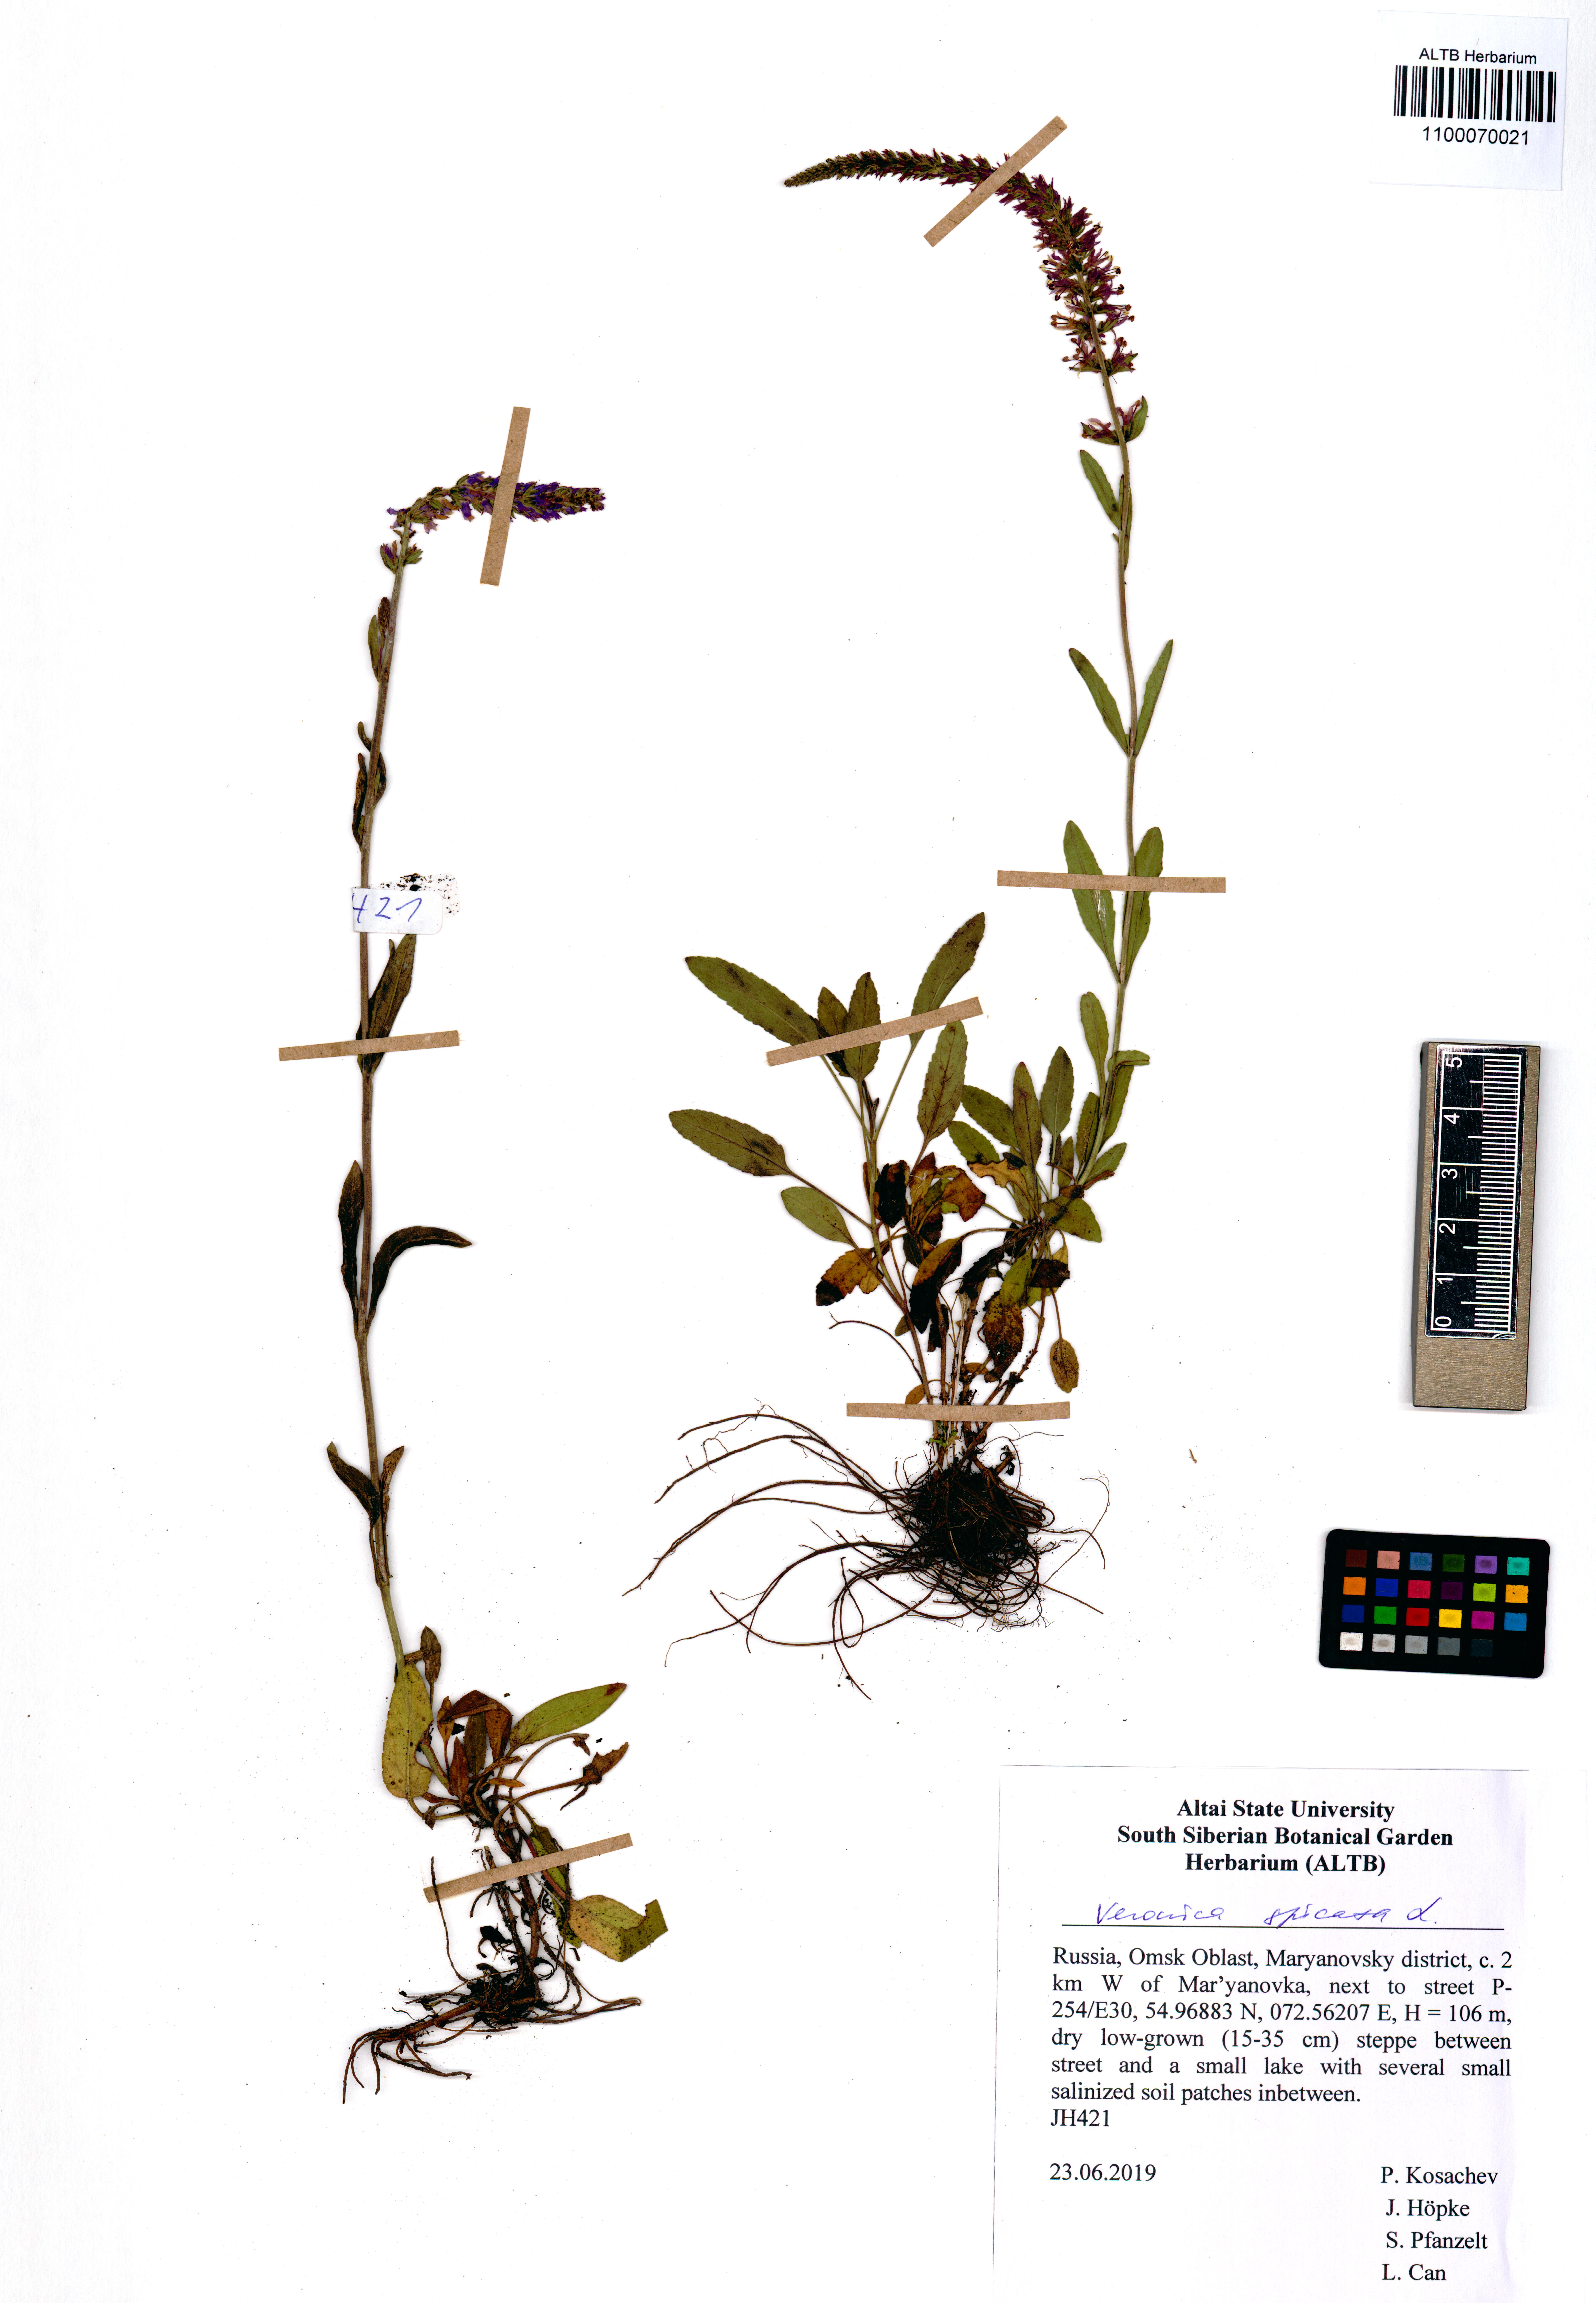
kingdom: Plantae
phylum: Tracheophyta
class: Magnoliopsida
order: Lamiales
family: Plantaginaceae
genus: Veronica
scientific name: Veronica spicata
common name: Spiked speedwell
